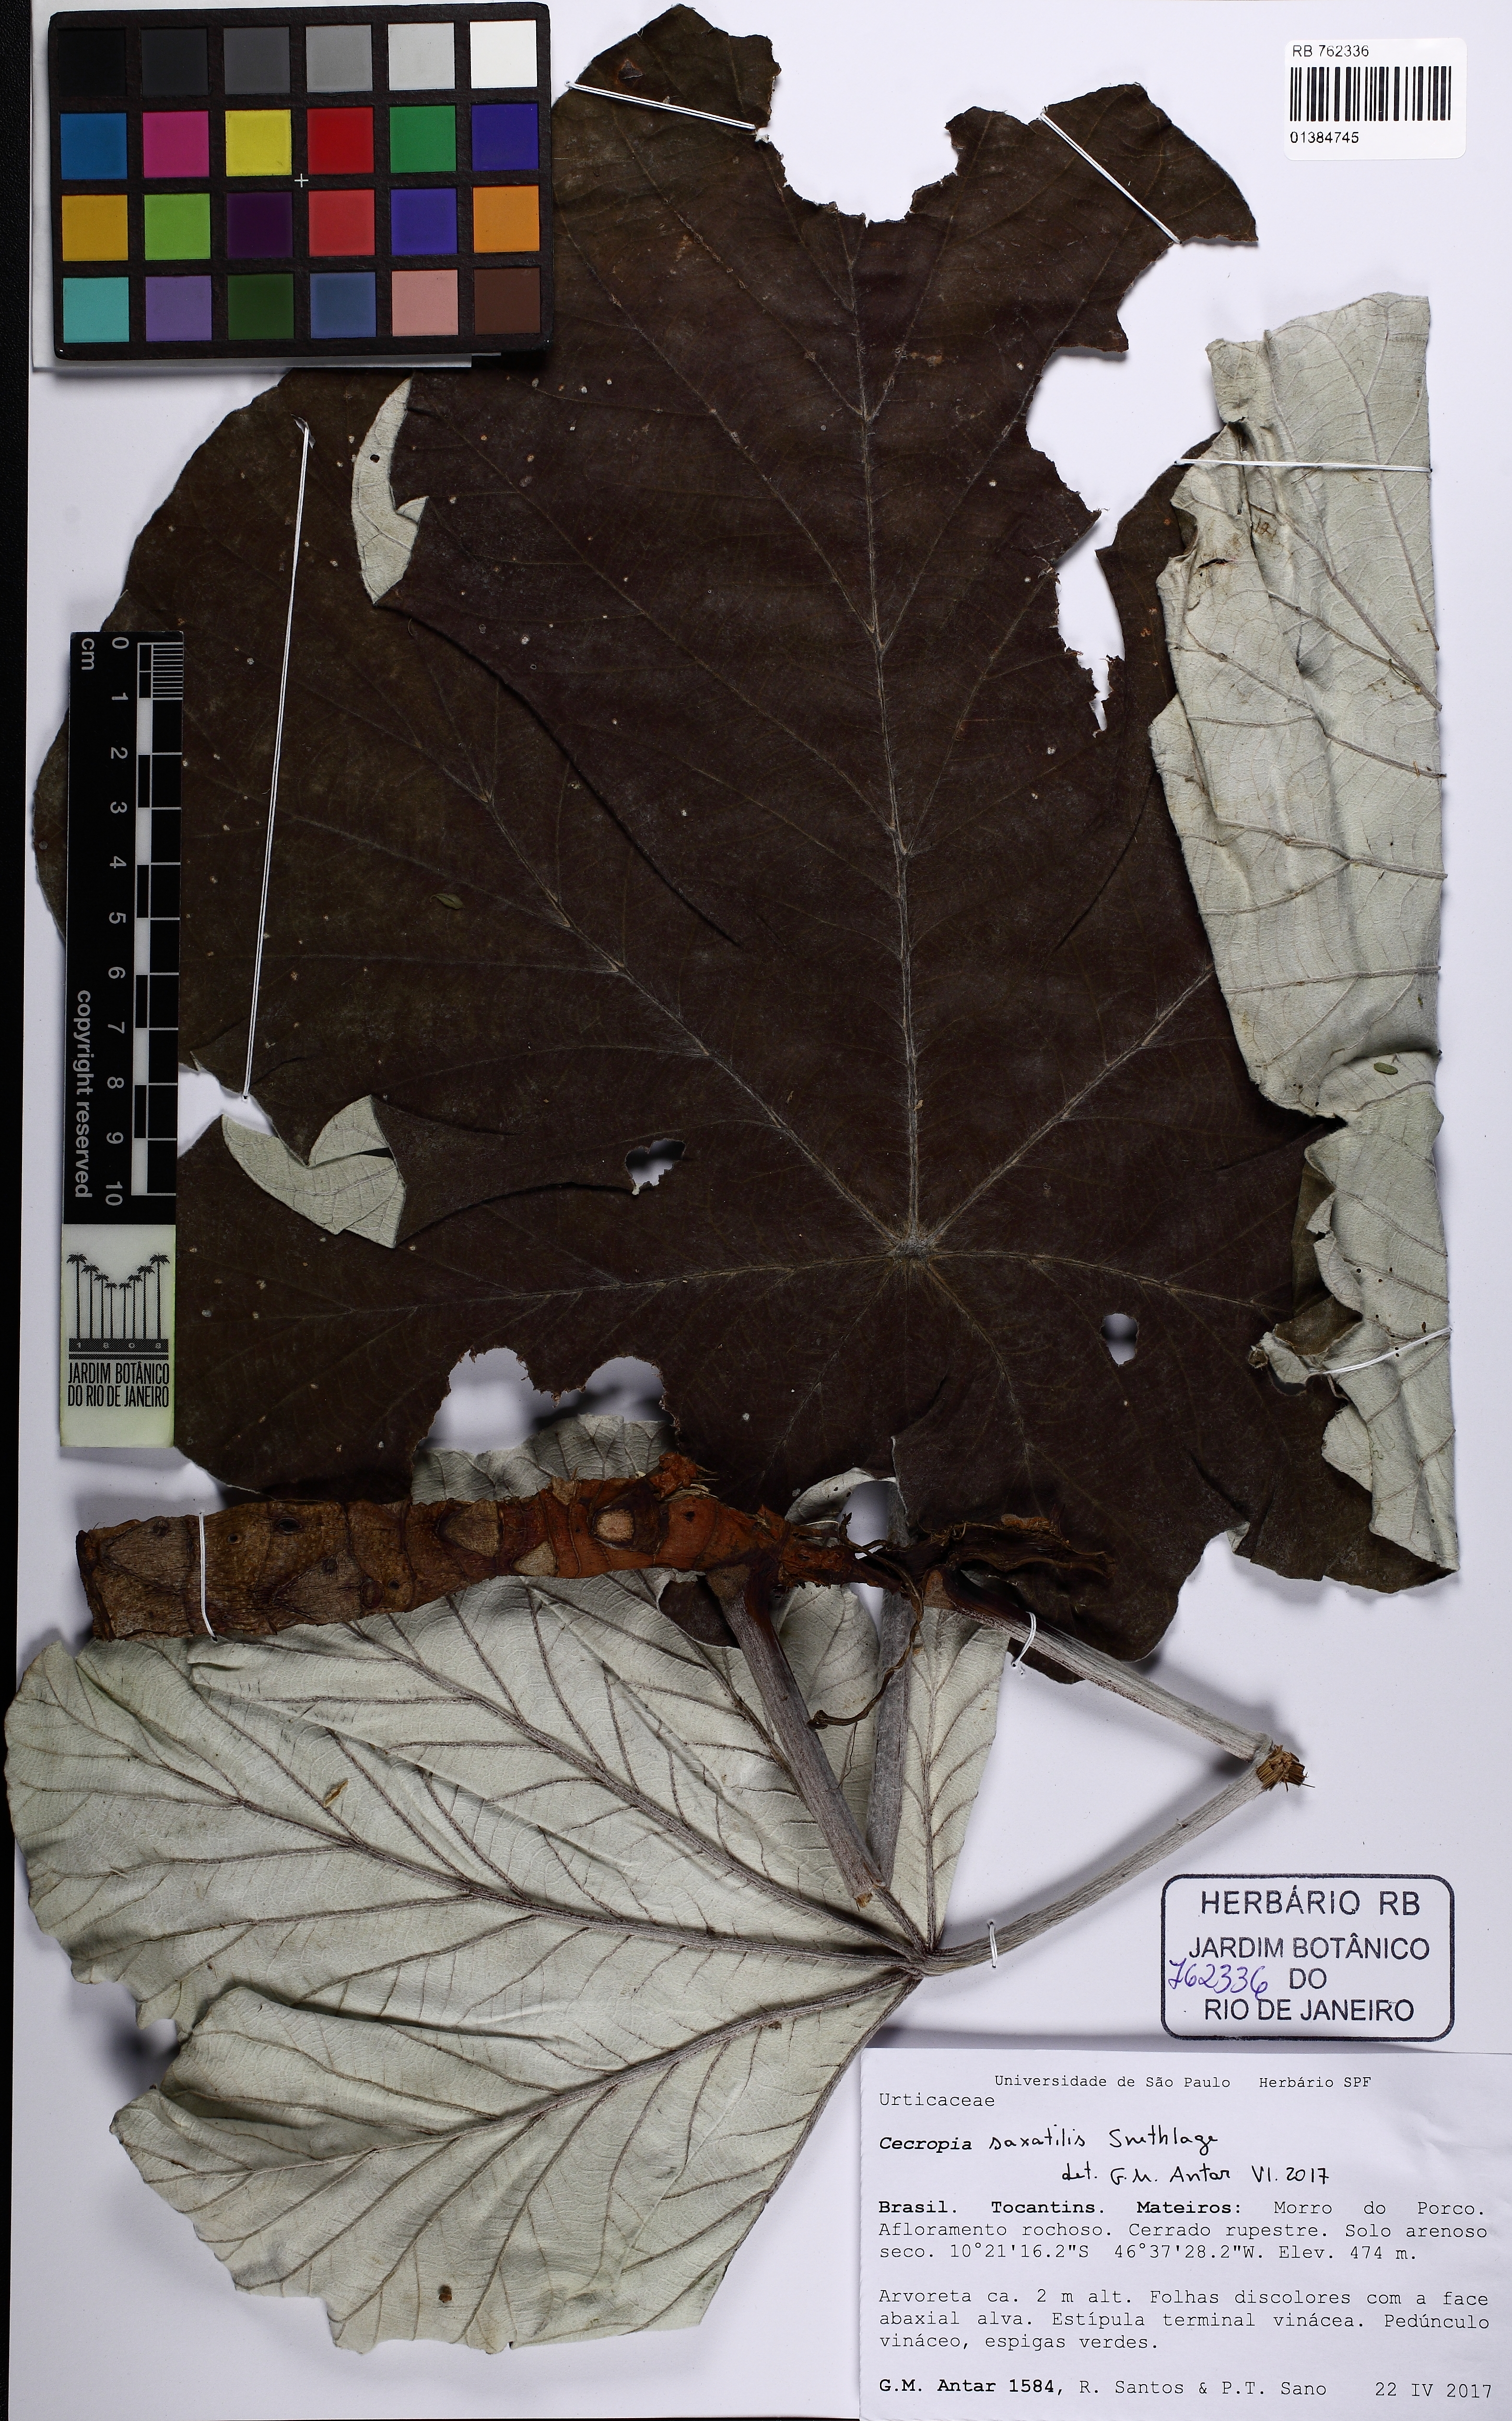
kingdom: Plantae
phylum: Tracheophyta
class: Magnoliopsida
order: Rosales
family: Urticaceae
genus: Cecropia
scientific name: Cecropia saxatilis
